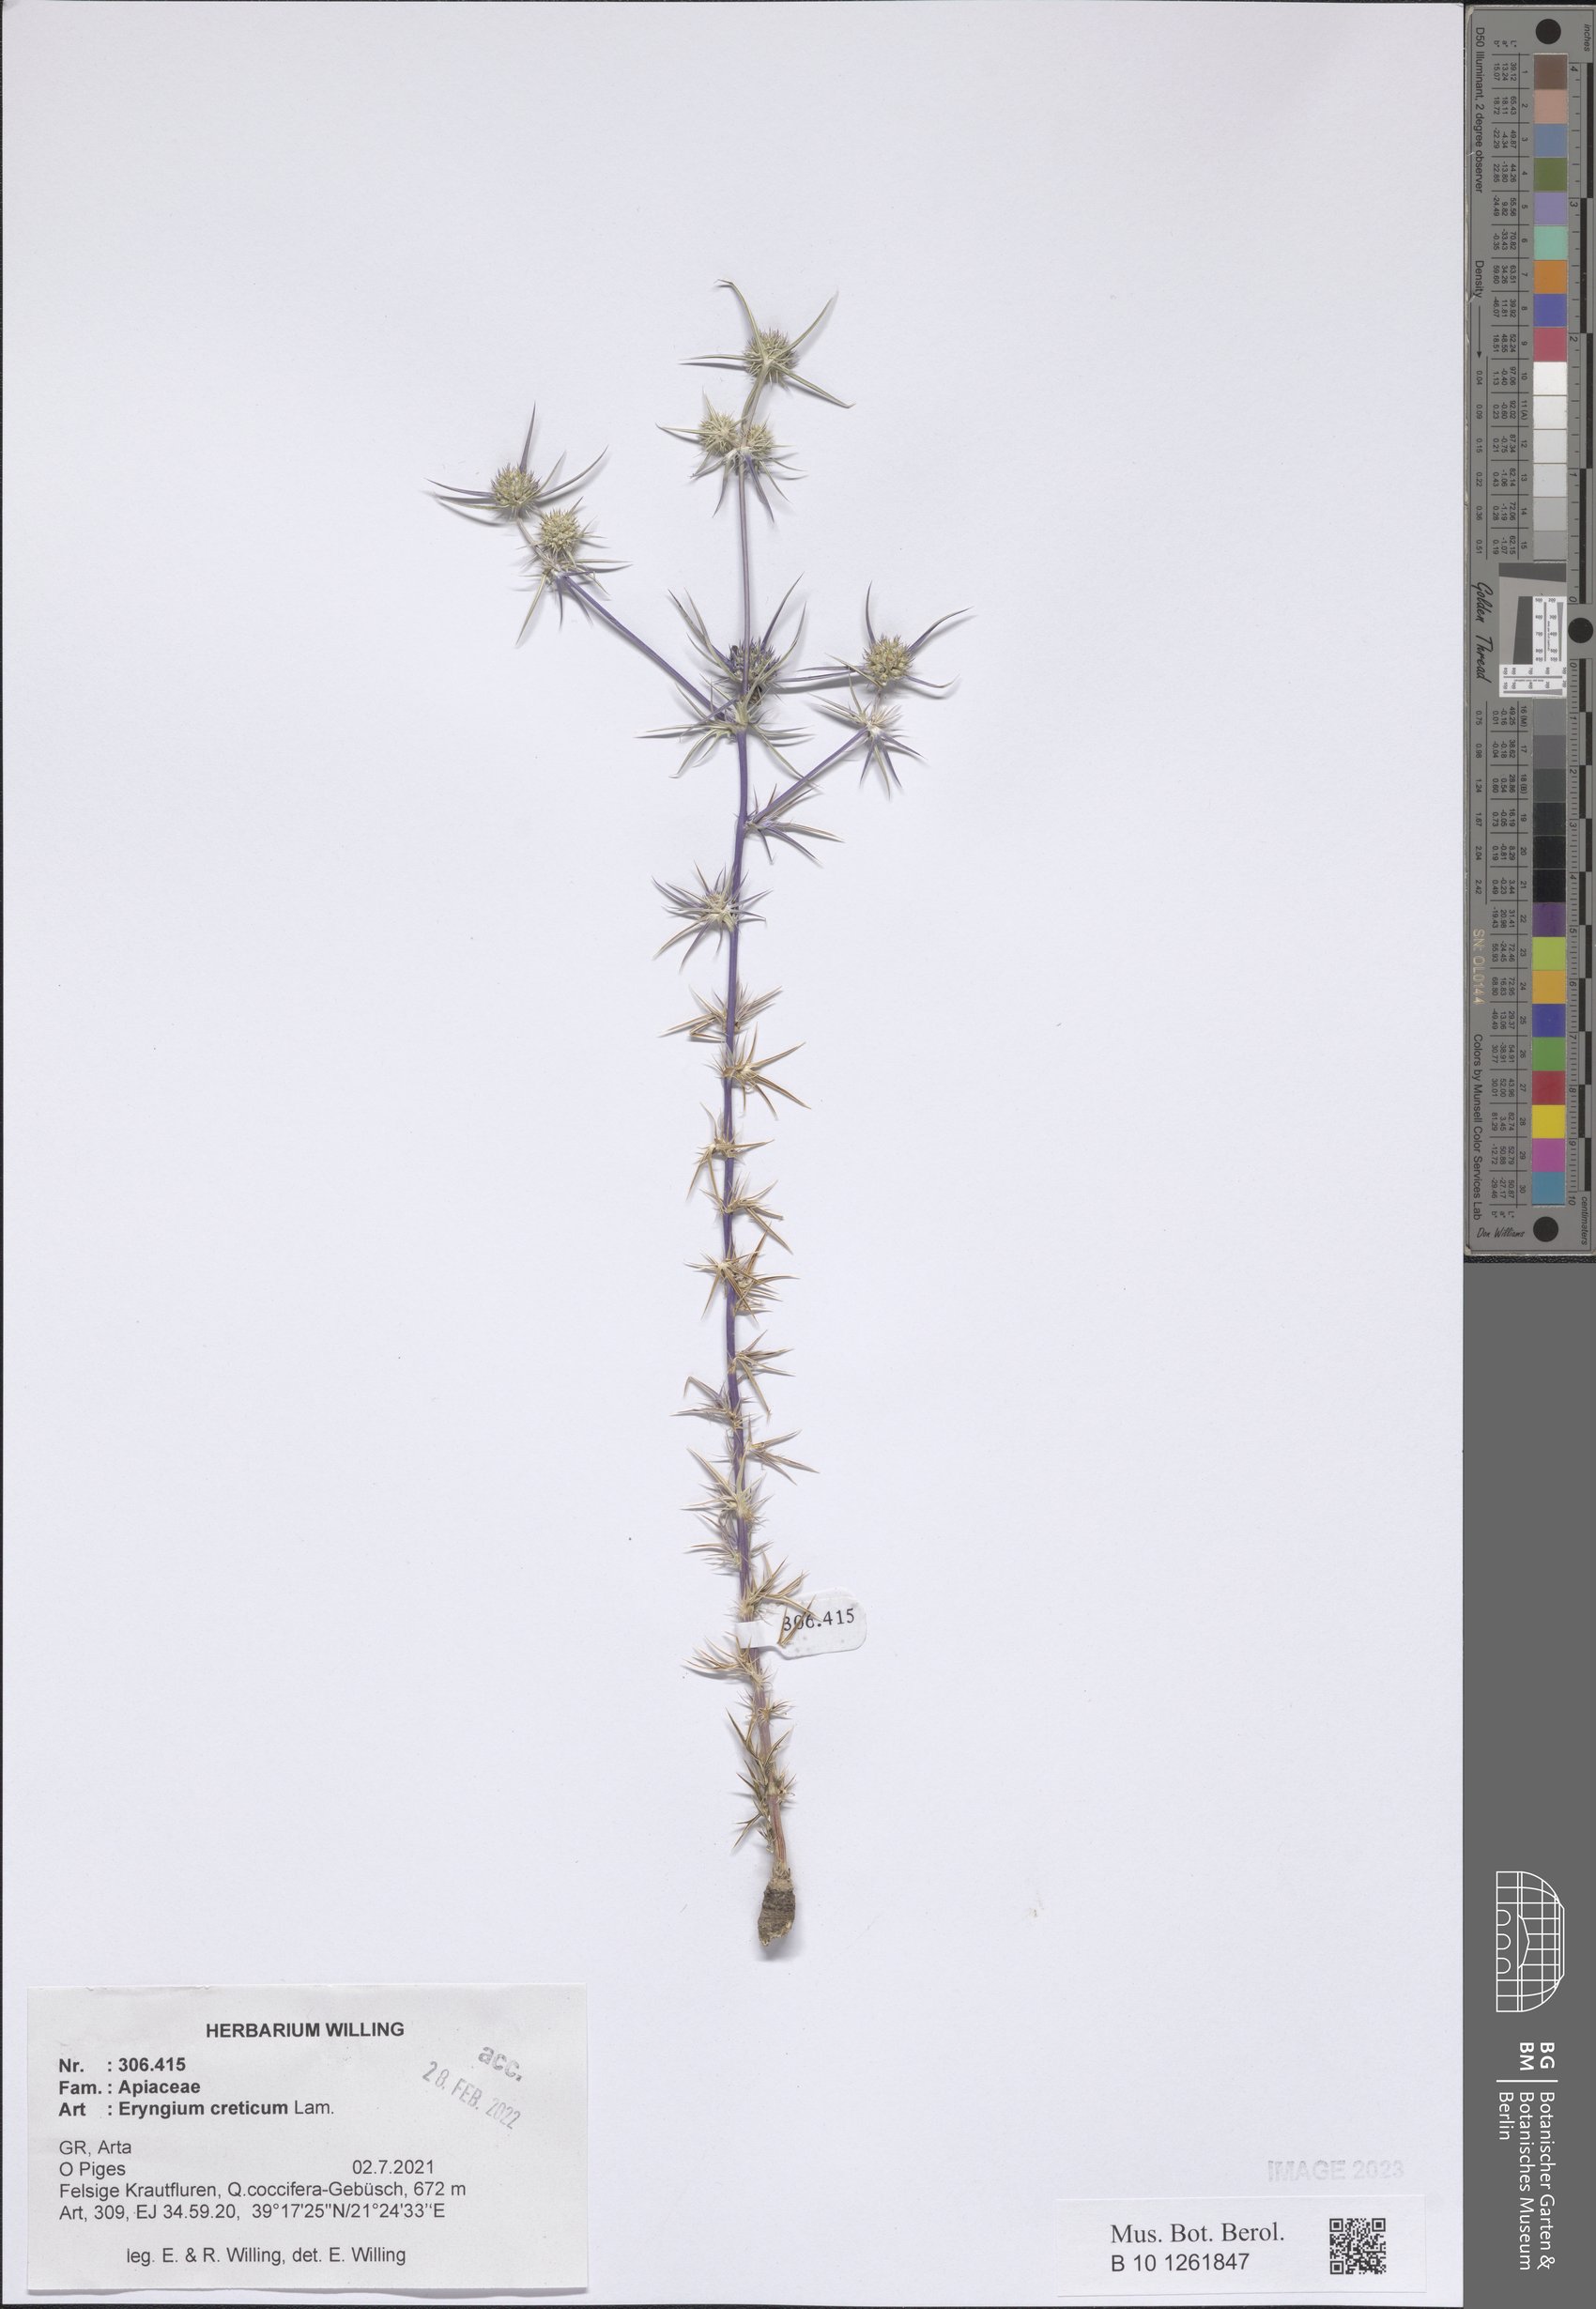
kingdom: Plantae
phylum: Tracheophyta
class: Magnoliopsida
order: Apiales
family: Apiaceae
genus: Eryngium
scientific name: Eryngium creticum
